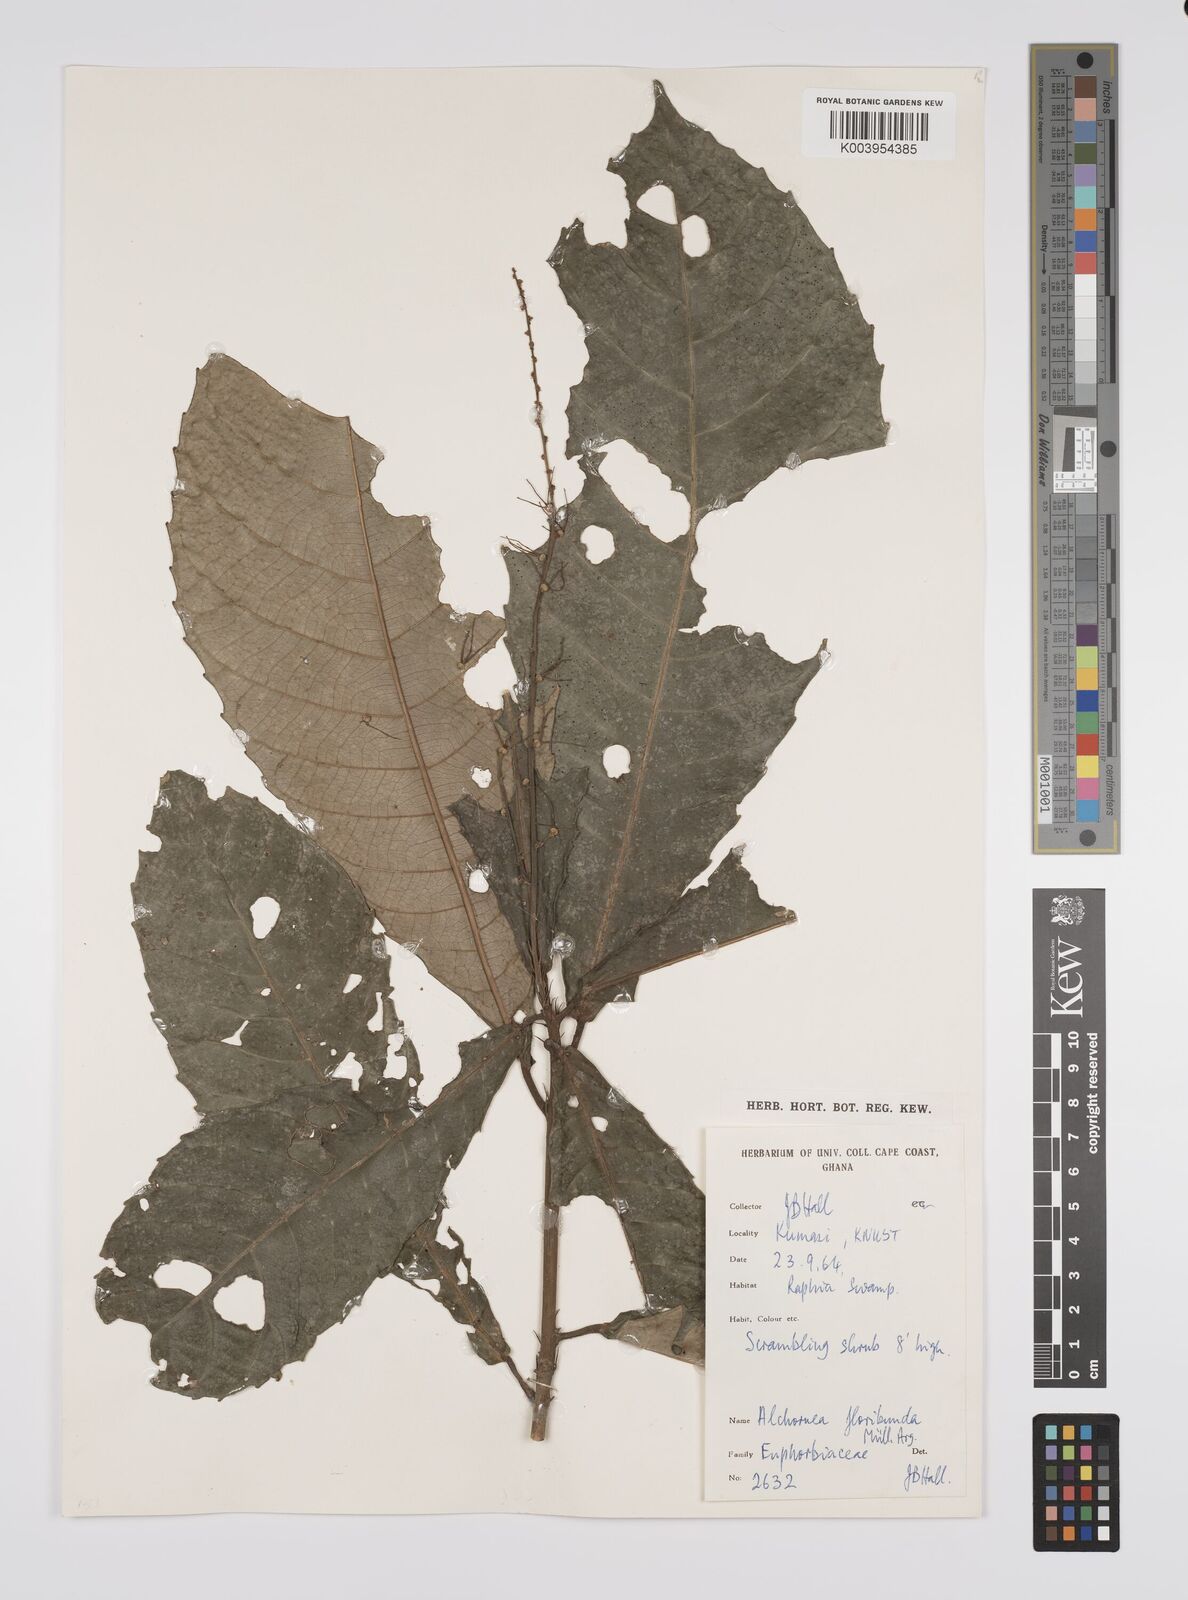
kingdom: Plantae
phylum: Tracheophyta
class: Magnoliopsida
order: Malpighiales
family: Euphorbiaceae
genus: Alchornea
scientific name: Alchornea floribunda
